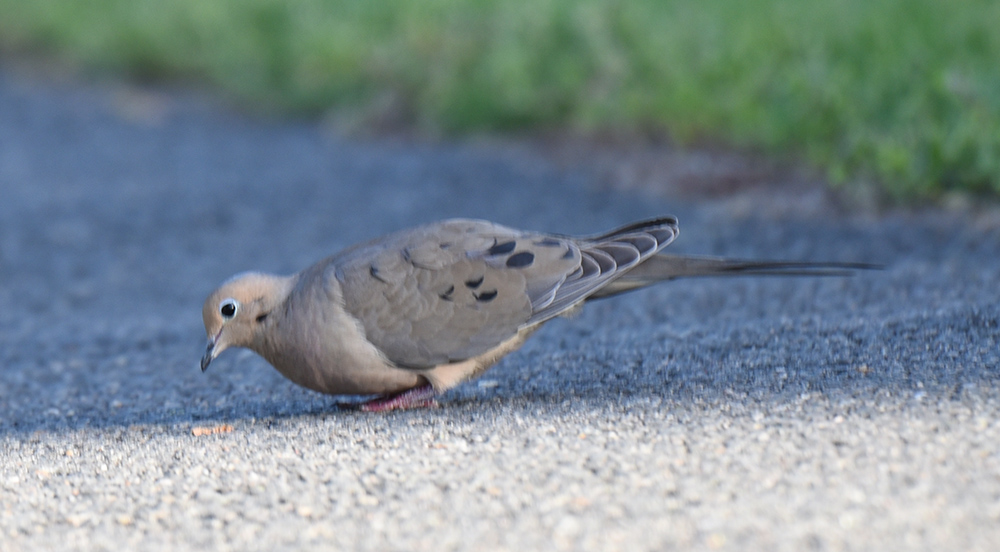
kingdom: Animalia
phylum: Chordata
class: Aves
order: Columbiformes
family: Columbidae
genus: Zenaida
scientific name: Zenaida macroura
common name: Mourning dove
